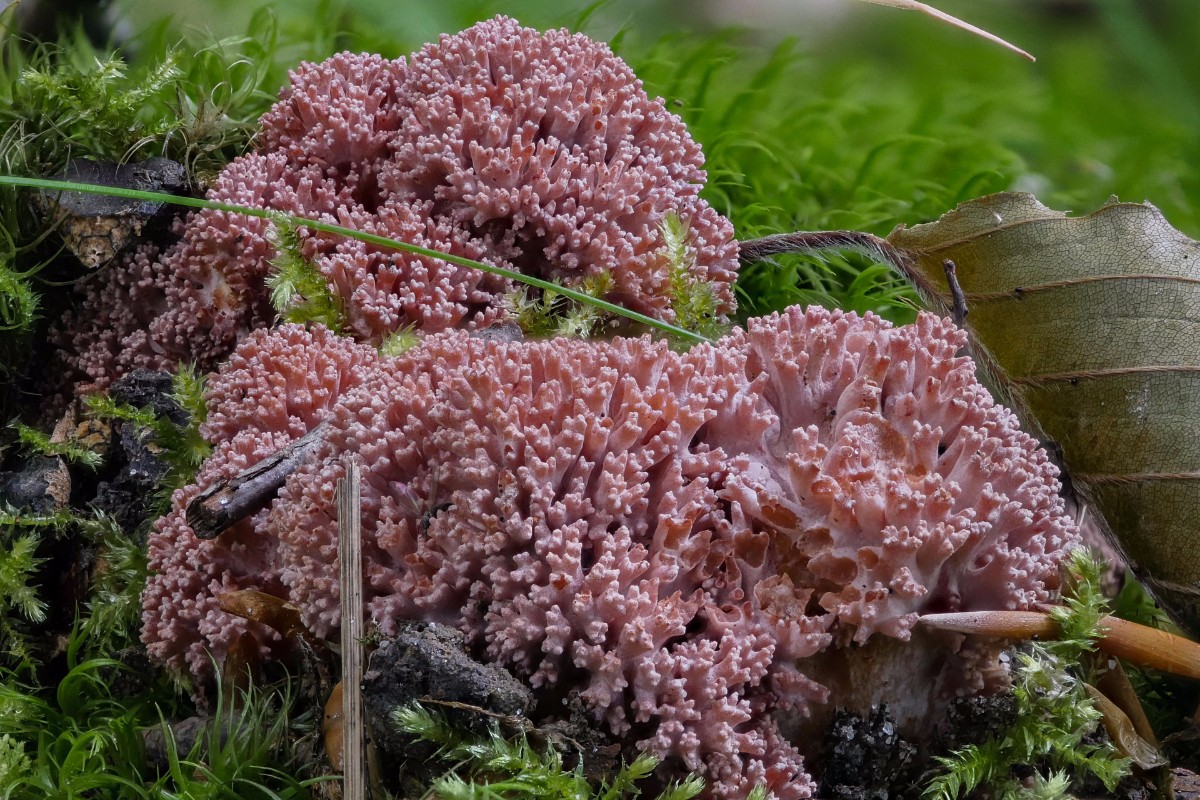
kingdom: Fungi
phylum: Basidiomycota
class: Agaricomycetes
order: Gomphales
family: Gomphaceae
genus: Ramaria
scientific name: Ramaria botrytis
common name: drue-koralsvamp
